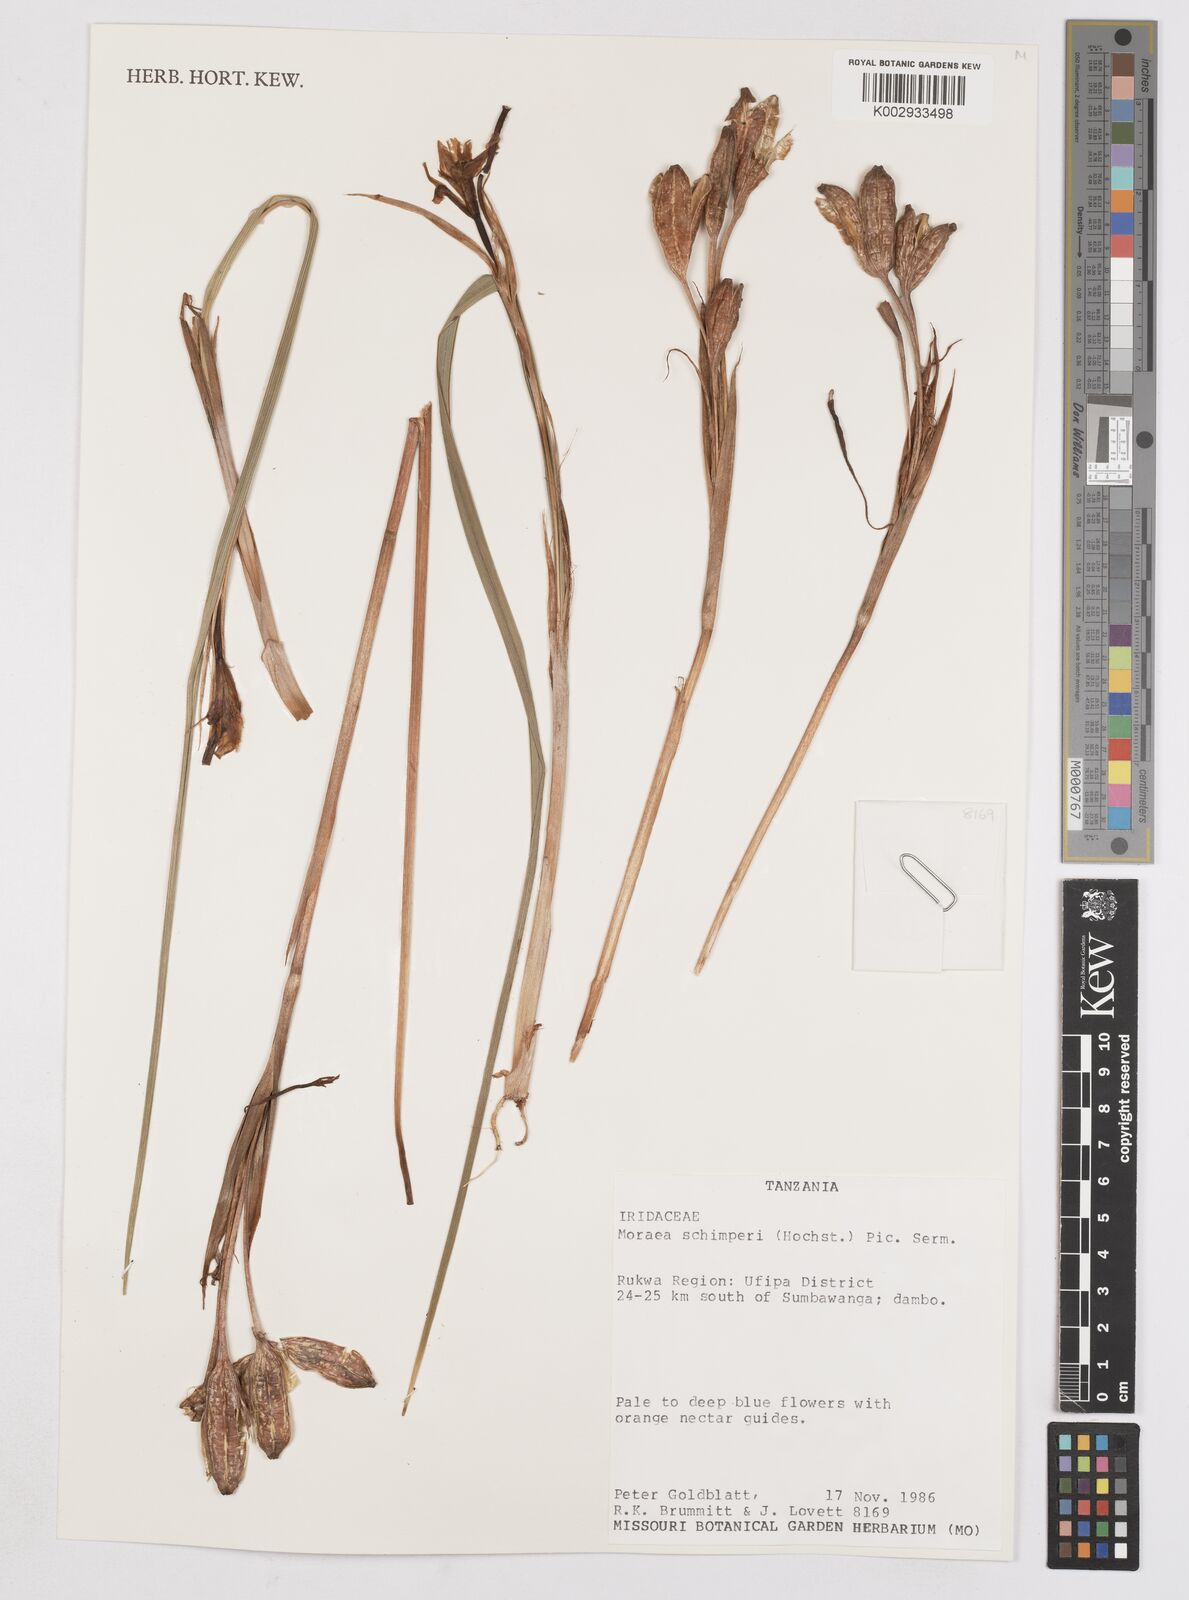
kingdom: Plantae
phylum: Tracheophyta
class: Liliopsida
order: Asparagales
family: Iridaceae
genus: Moraea
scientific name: Moraea schimperi
